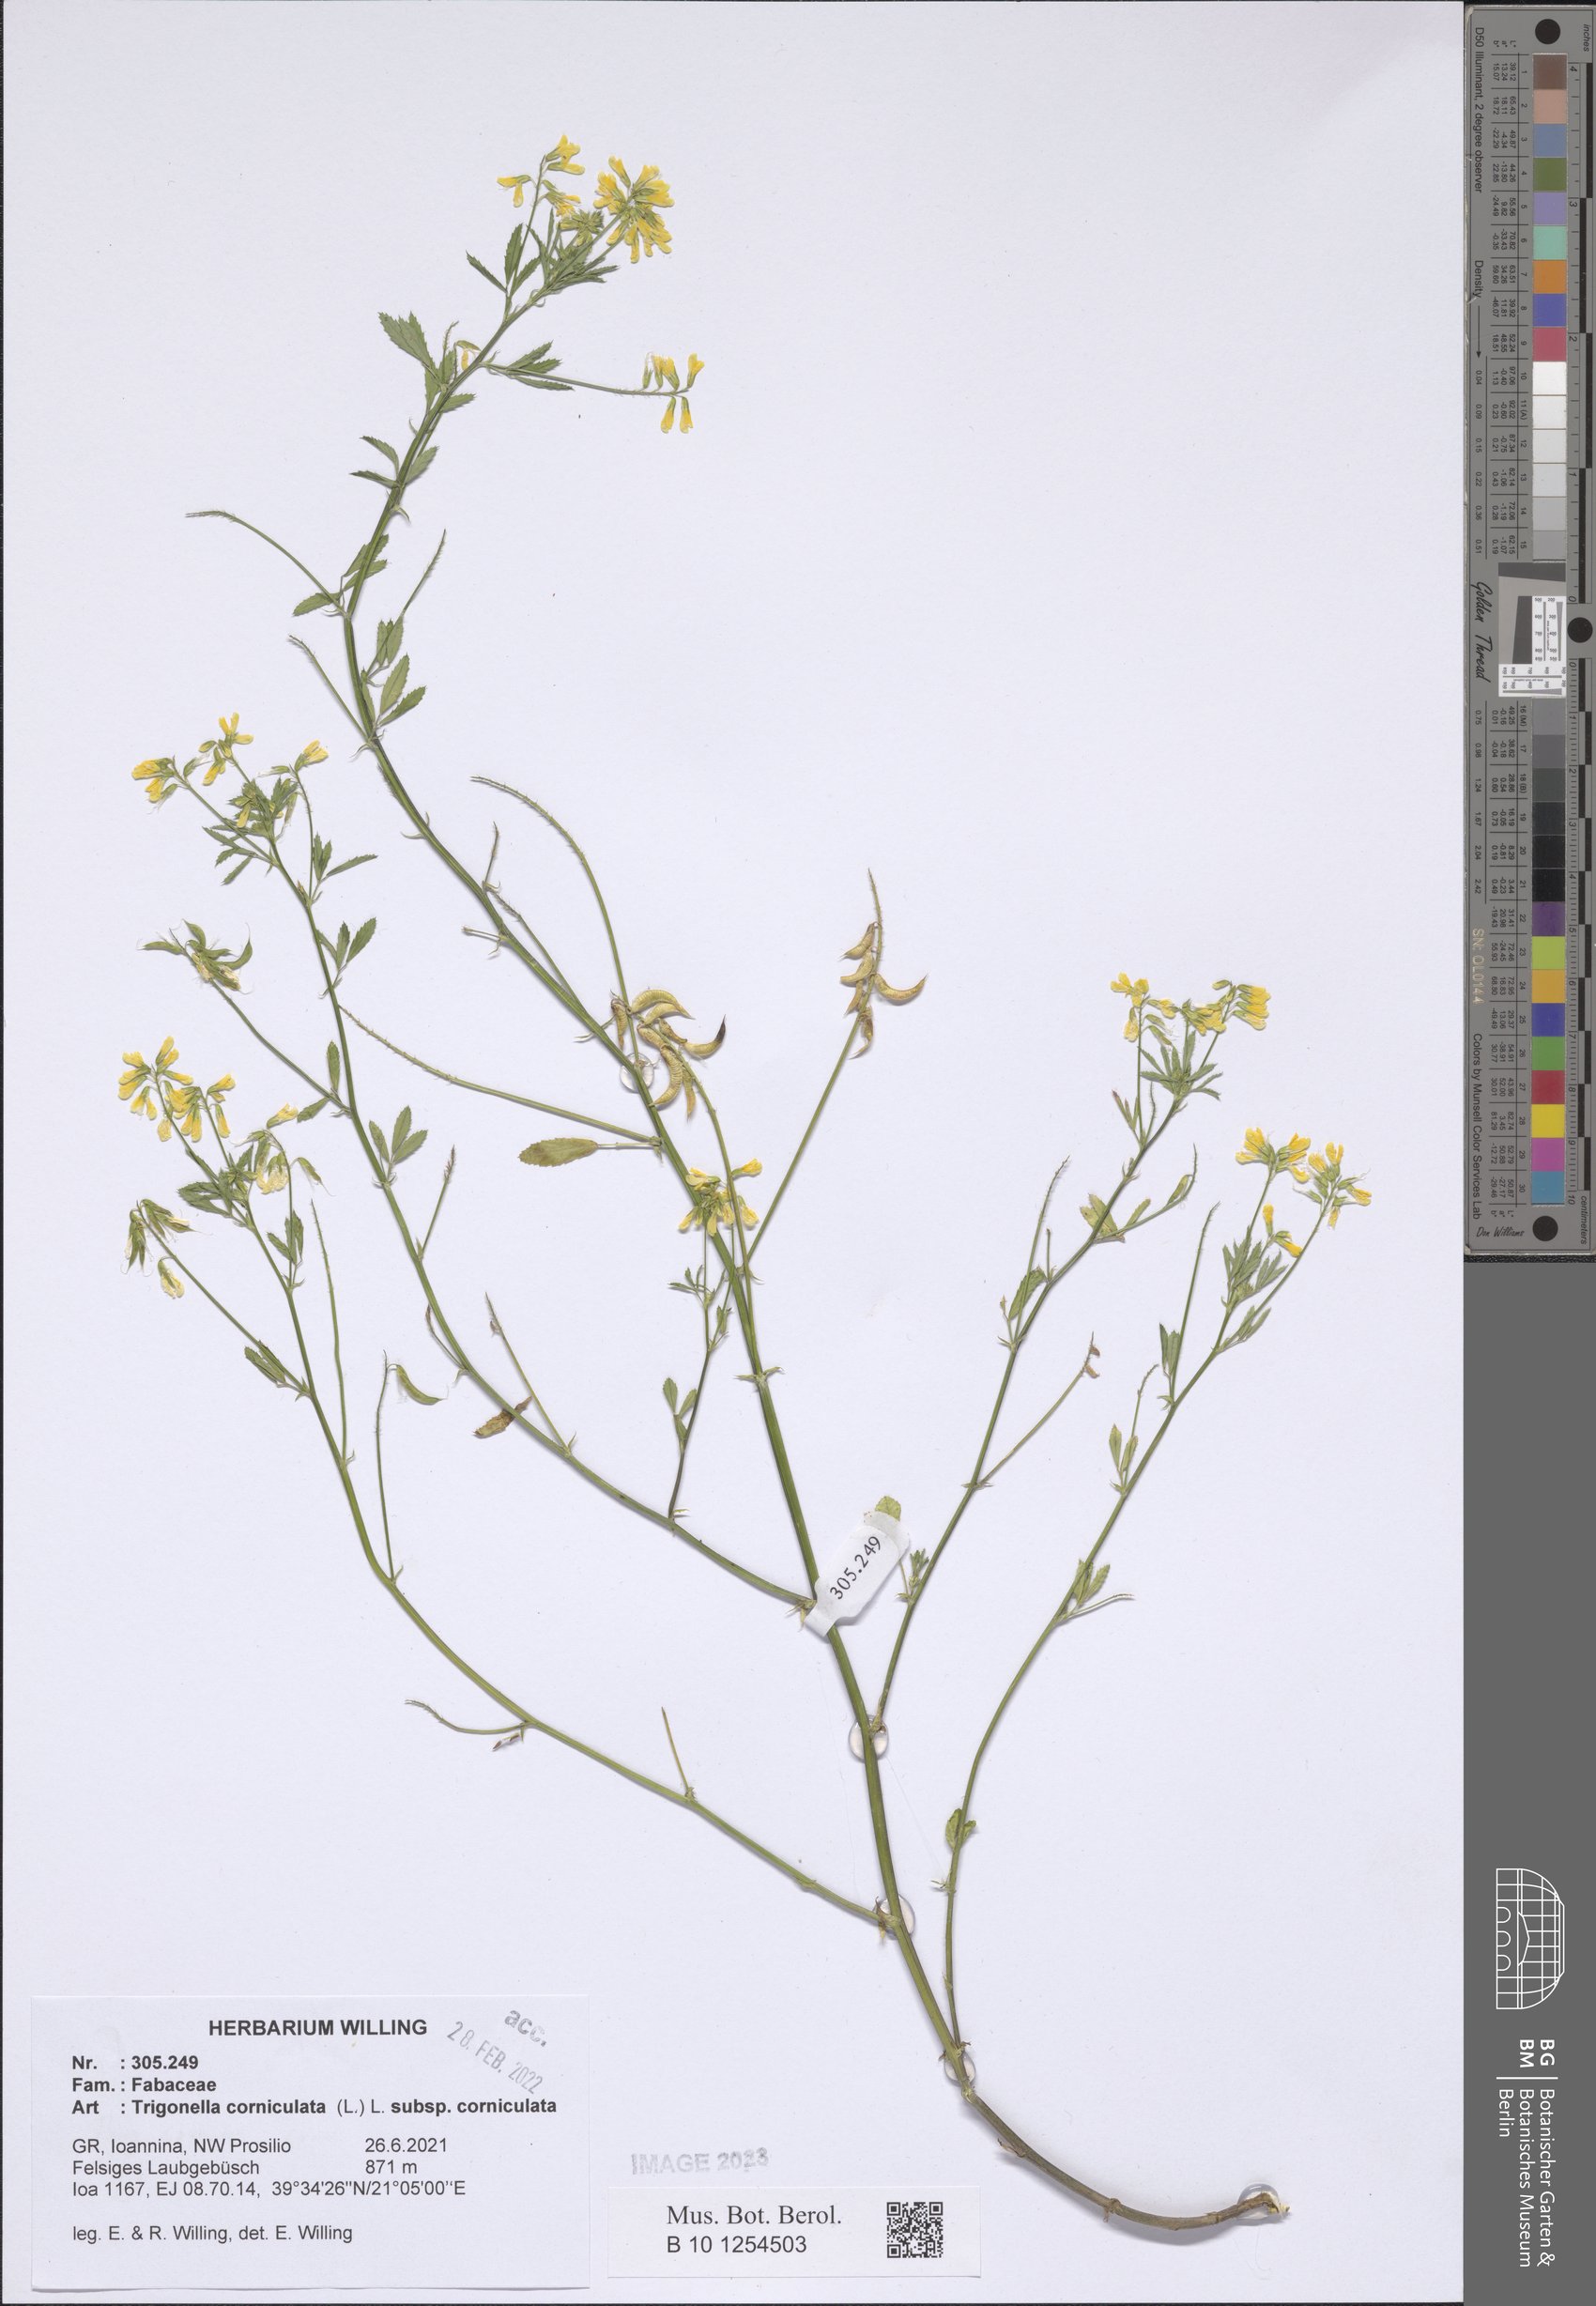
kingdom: Plantae
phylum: Tracheophyta
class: Magnoliopsida
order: Fabales
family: Fabaceae
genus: Trigonella
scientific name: Trigonella corniculata
